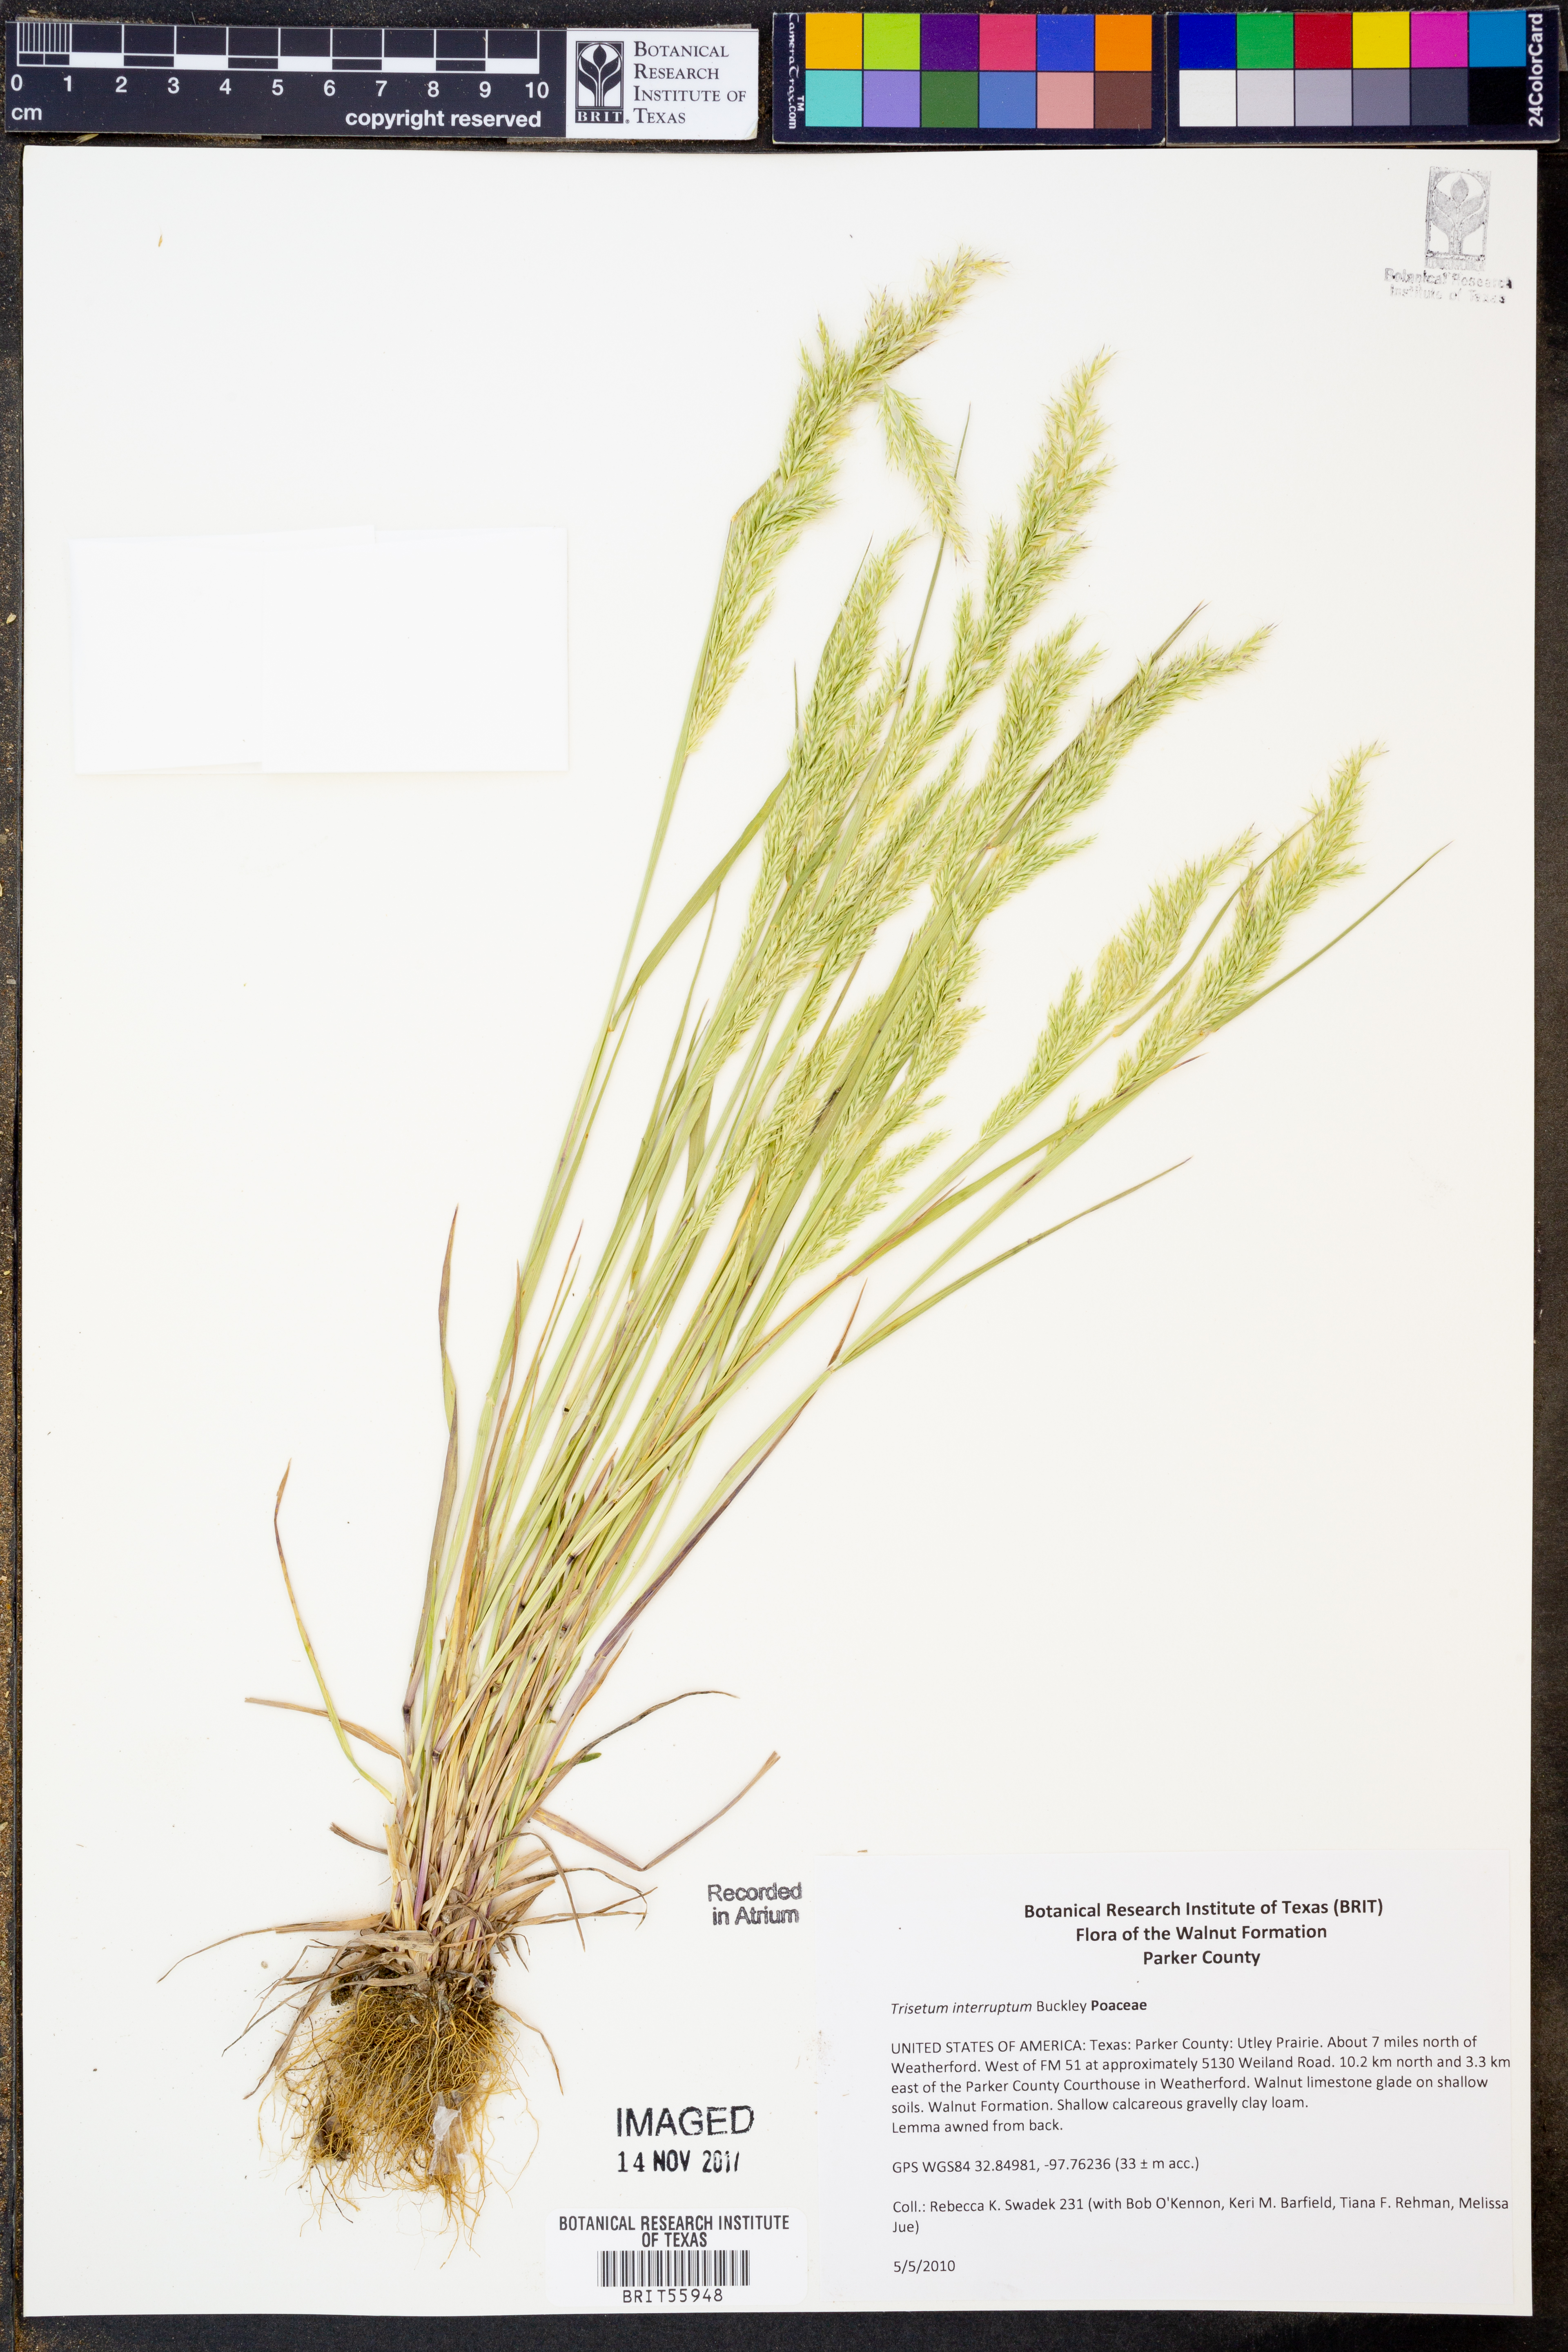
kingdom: Plantae
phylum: Tracheophyta
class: Liliopsida
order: Poales
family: Poaceae
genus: Sphenopholis
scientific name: Sphenopholis interrupta
